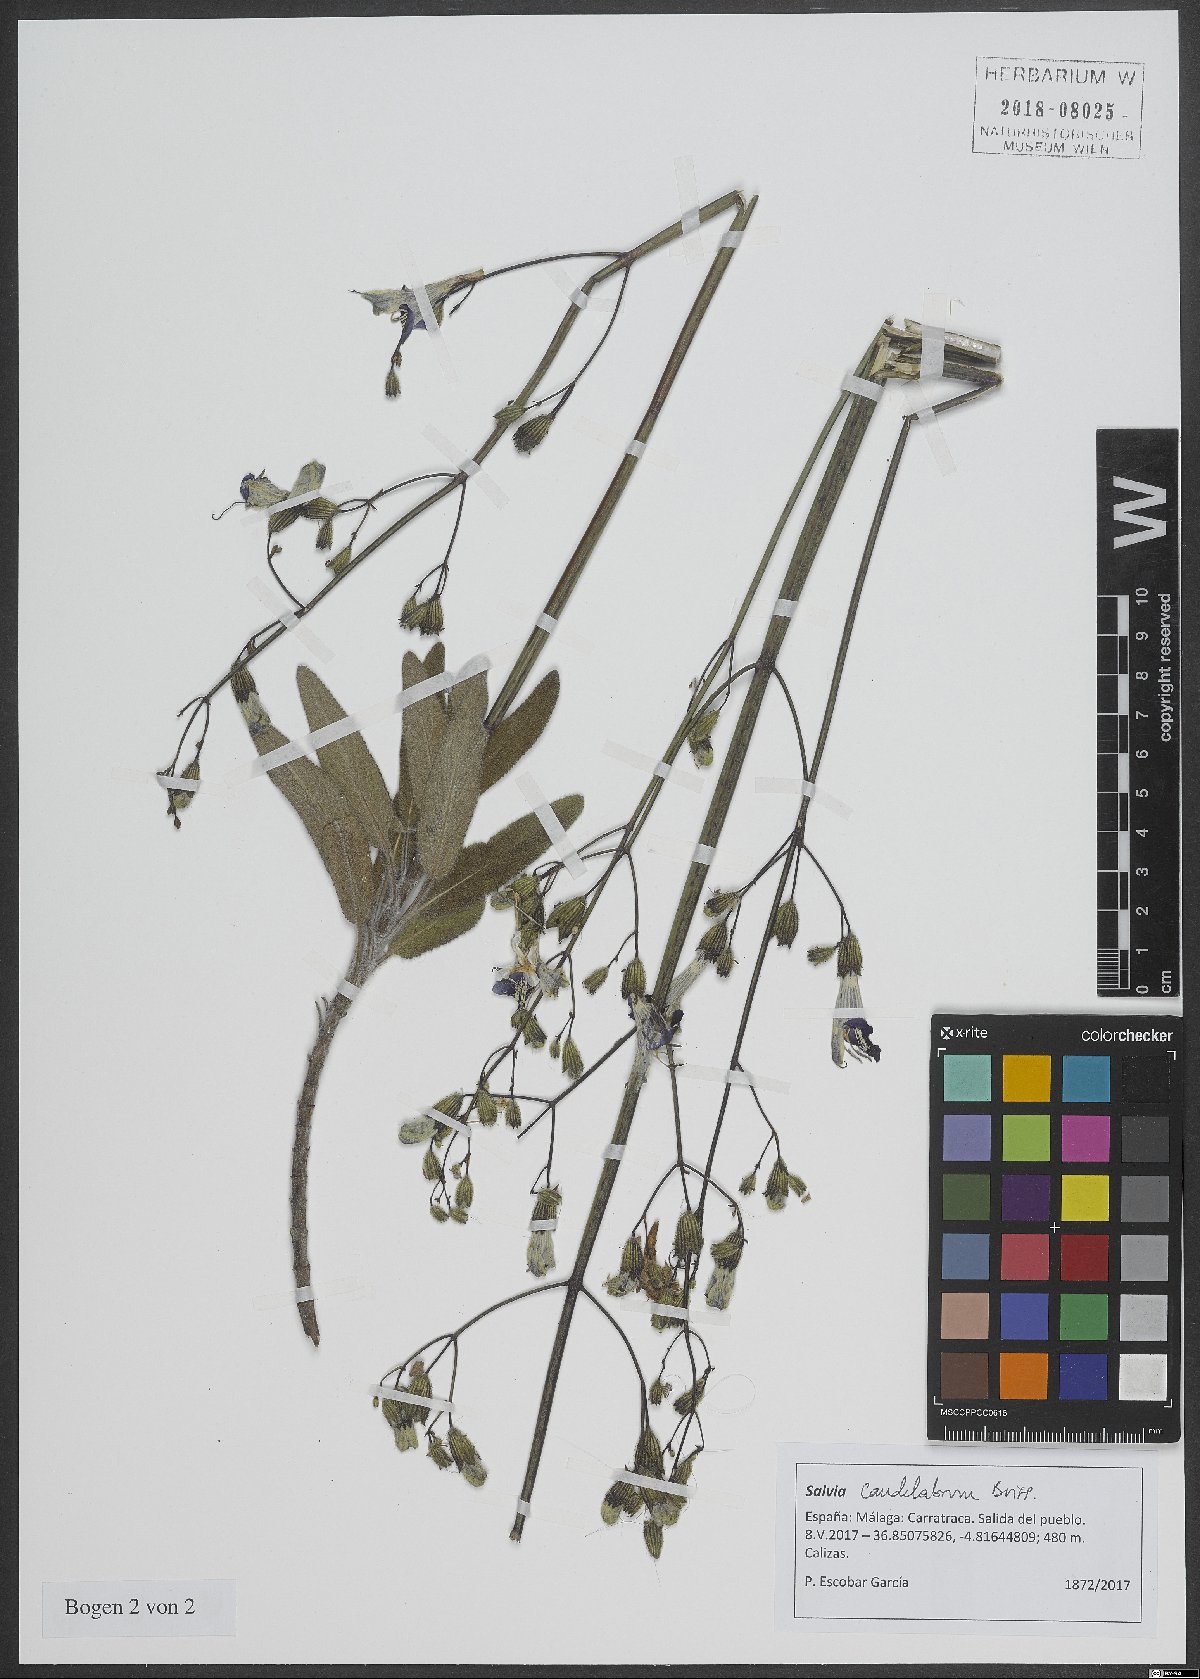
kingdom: Plantae
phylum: Tracheophyta
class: Magnoliopsida
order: Lamiales
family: Lamiaceae
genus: Salvia
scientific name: Salvia candelabrum
